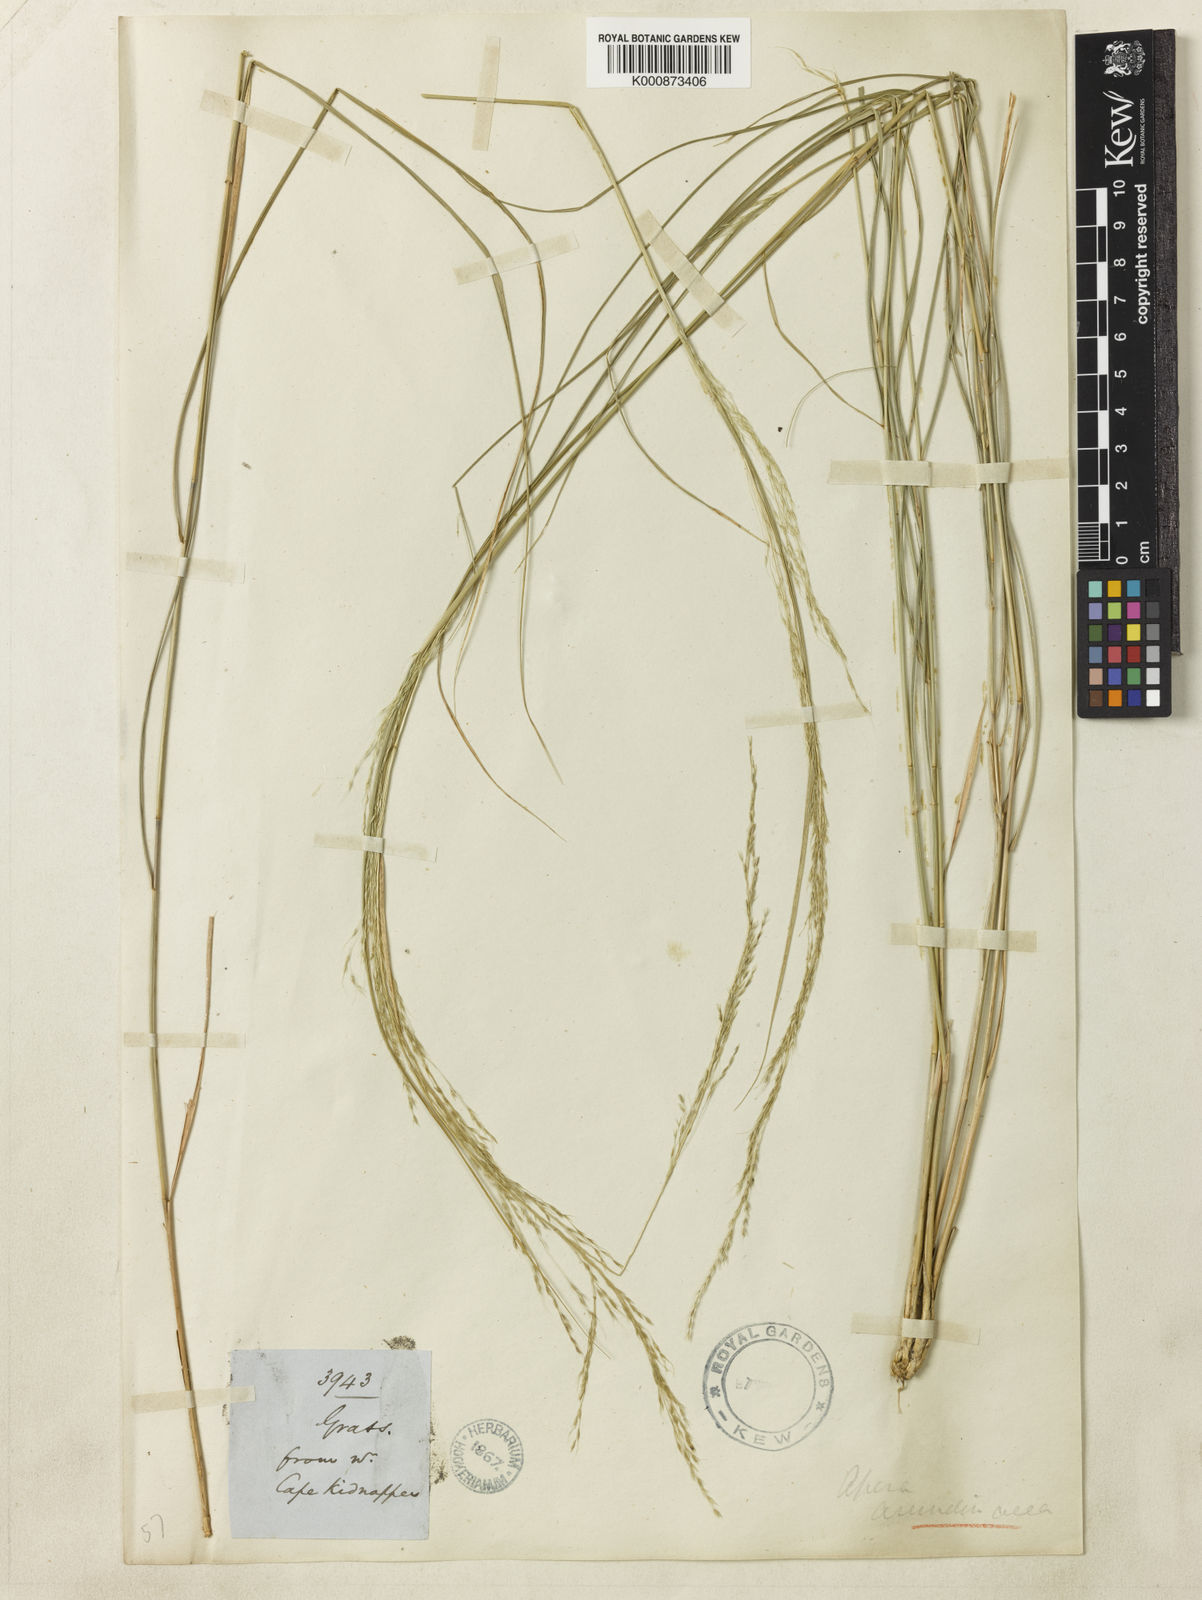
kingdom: Plantae
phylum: Tracheophyta
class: Liliopsida
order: Poales
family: Poaceae
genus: Stipa
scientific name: Stipa
